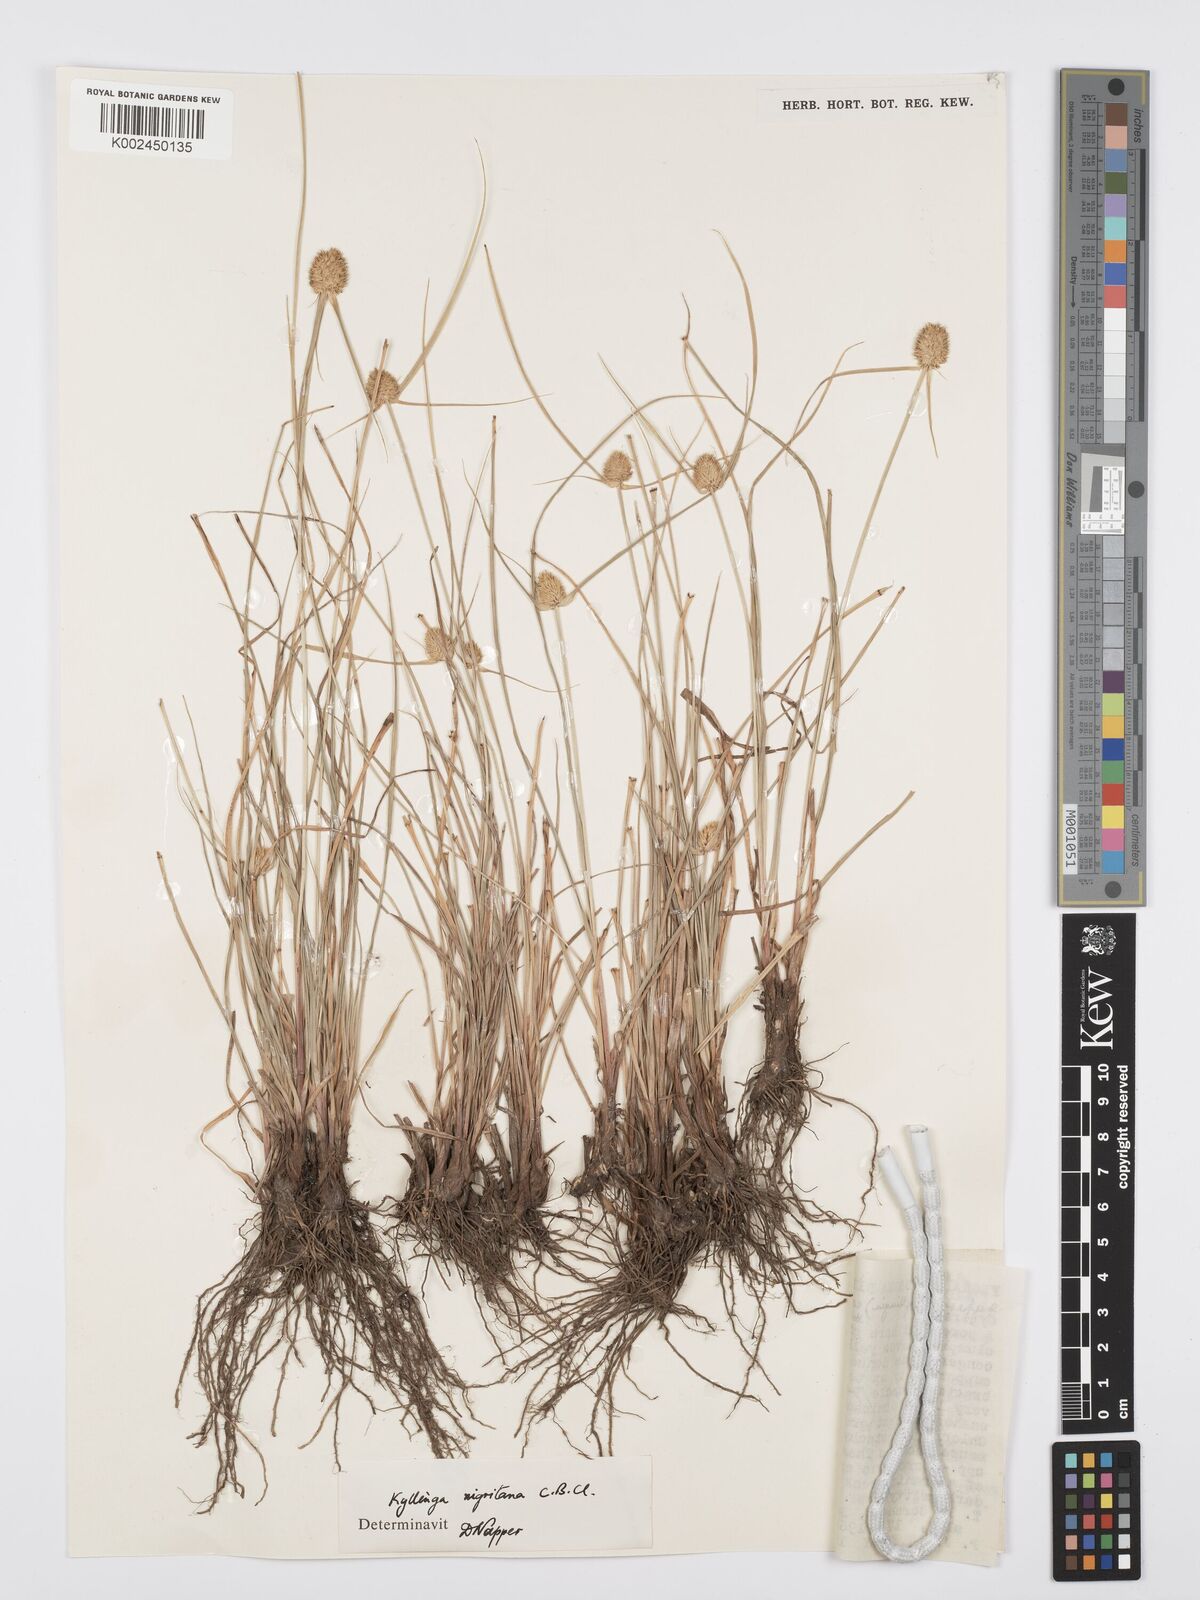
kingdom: Plantae
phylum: Tracheophyta
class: Liliopsida
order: Poales
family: Cyperaceae
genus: Cyperus
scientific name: Cyperus
